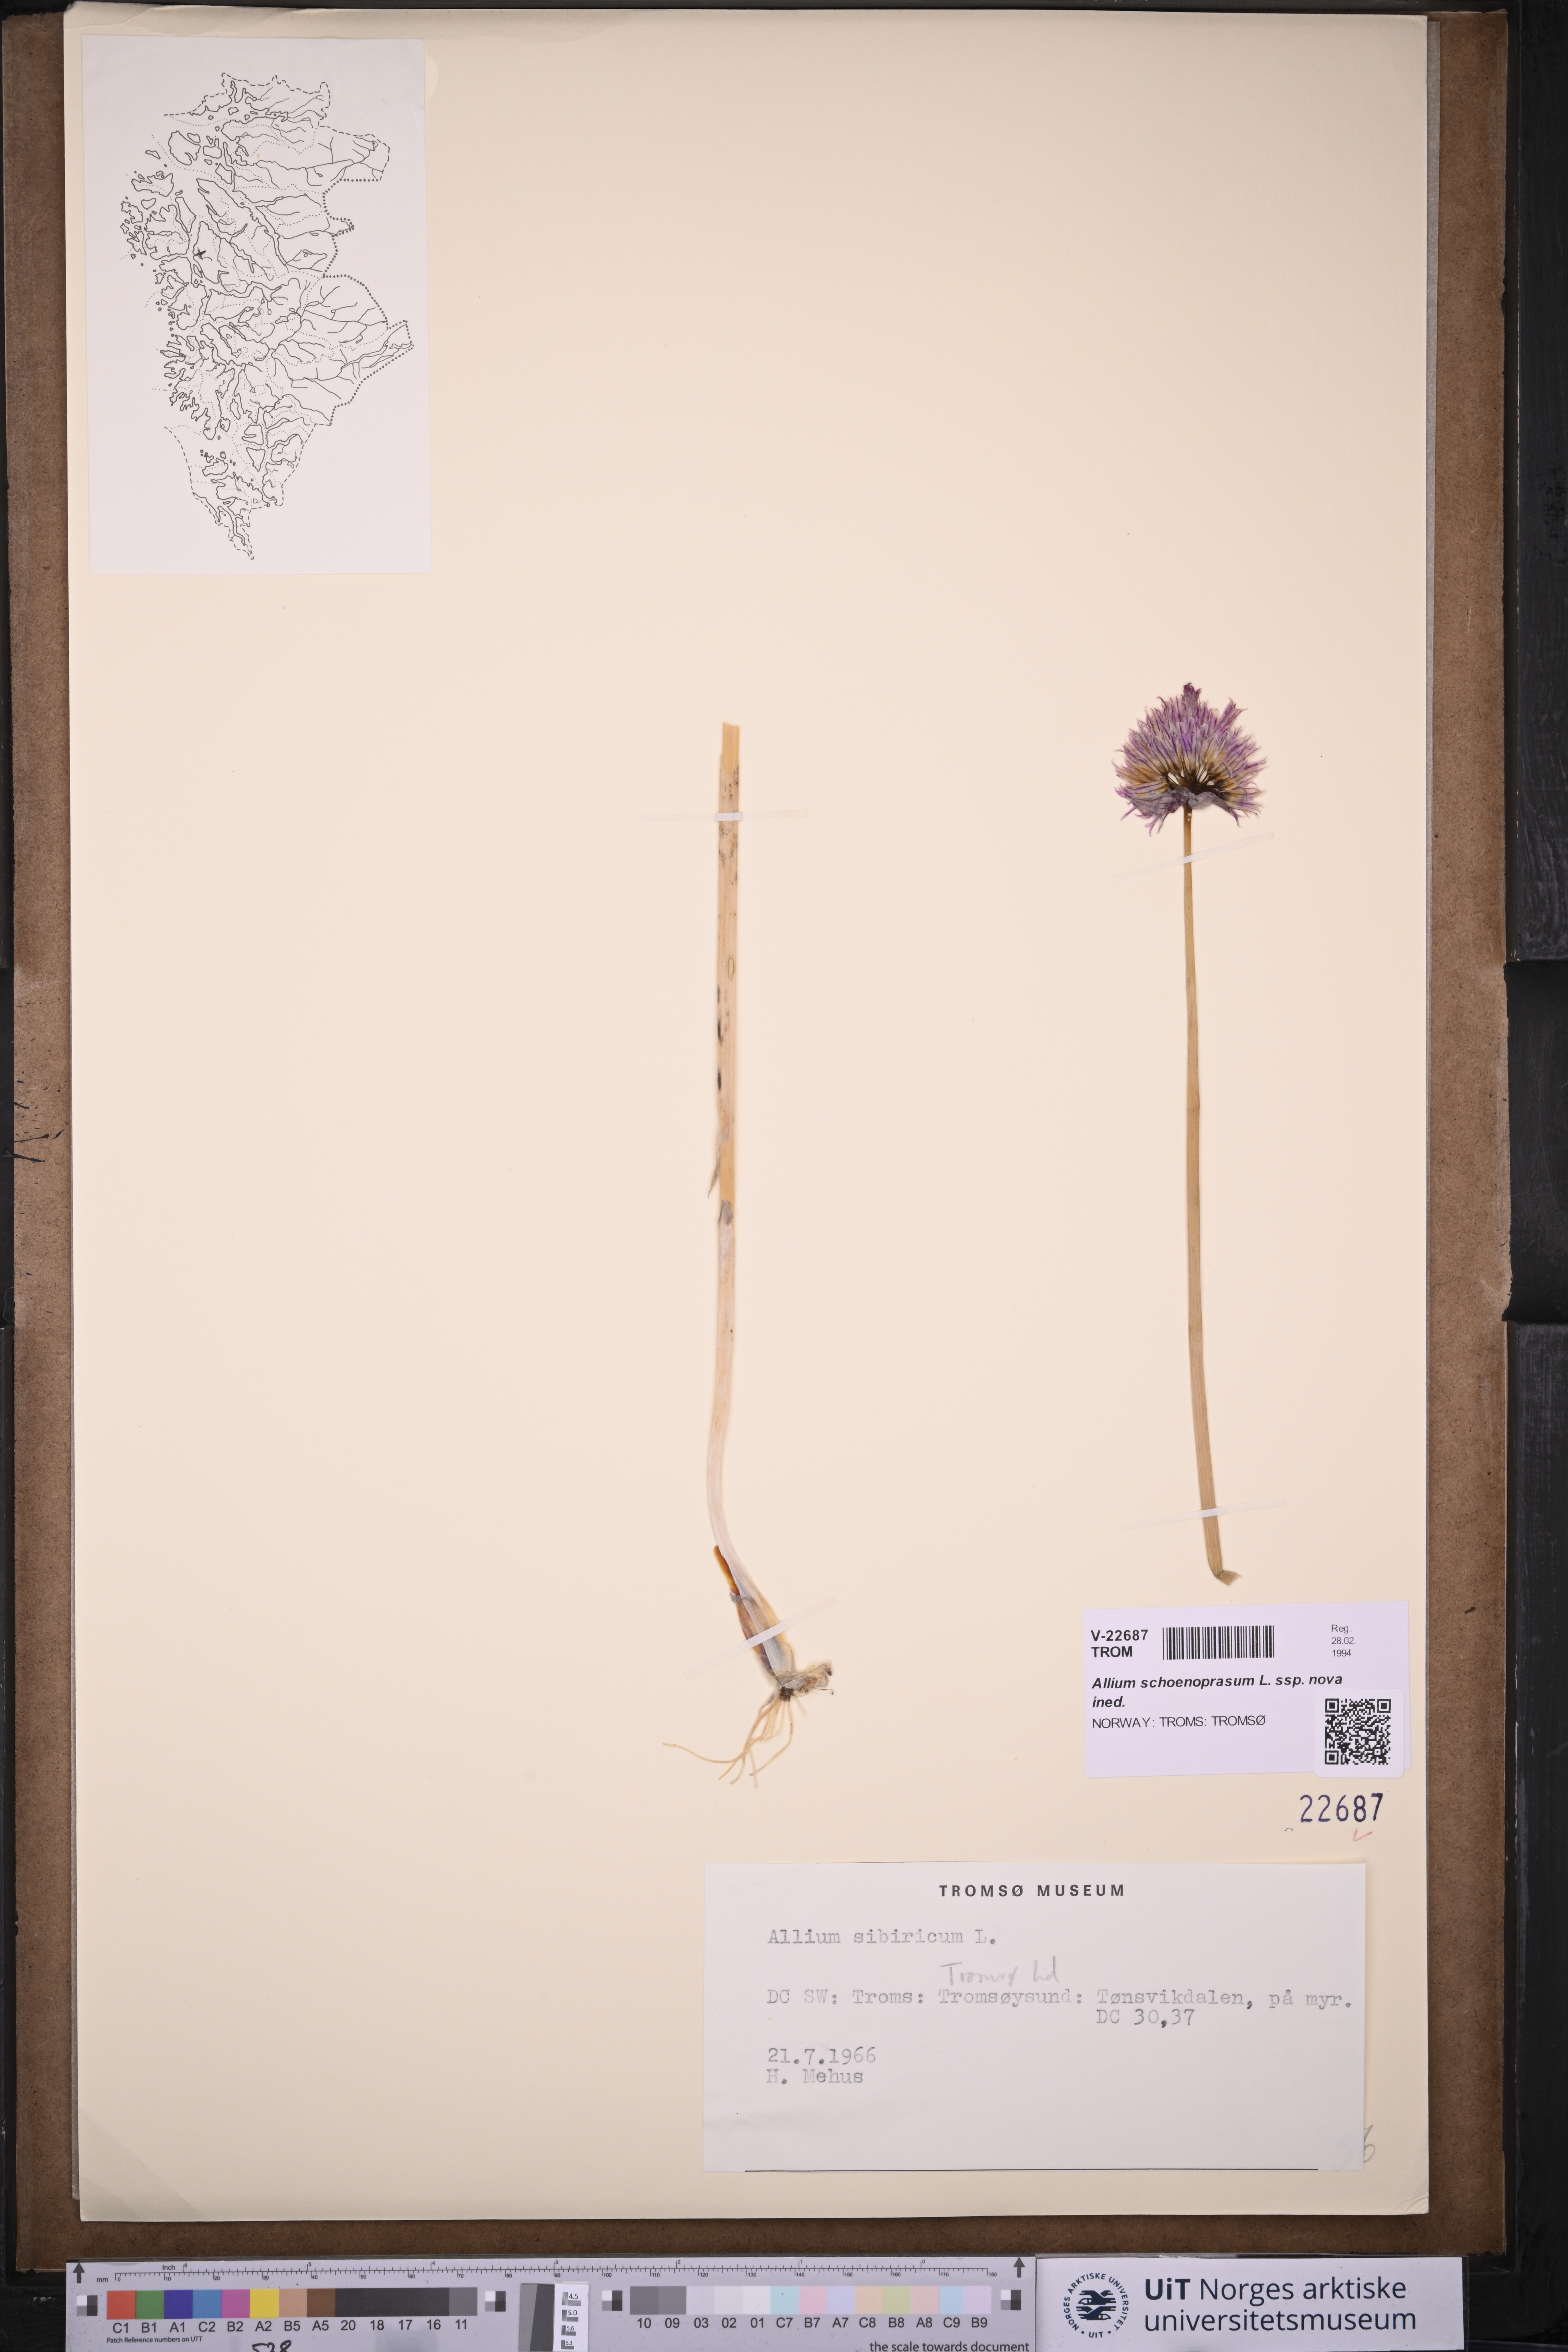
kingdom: Plantae
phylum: Tracheophyta
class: Liliopsida
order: Asparagales
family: Amaryllidaceae
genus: Allium
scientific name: Allium schoenoprasum
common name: Chives
